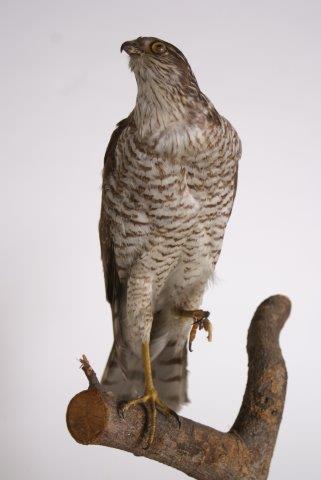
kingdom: Animalia
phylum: Chordata
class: Aves
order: Accipitriformes
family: Accipitridae
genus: Accipiter
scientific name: Accipiter nisus
